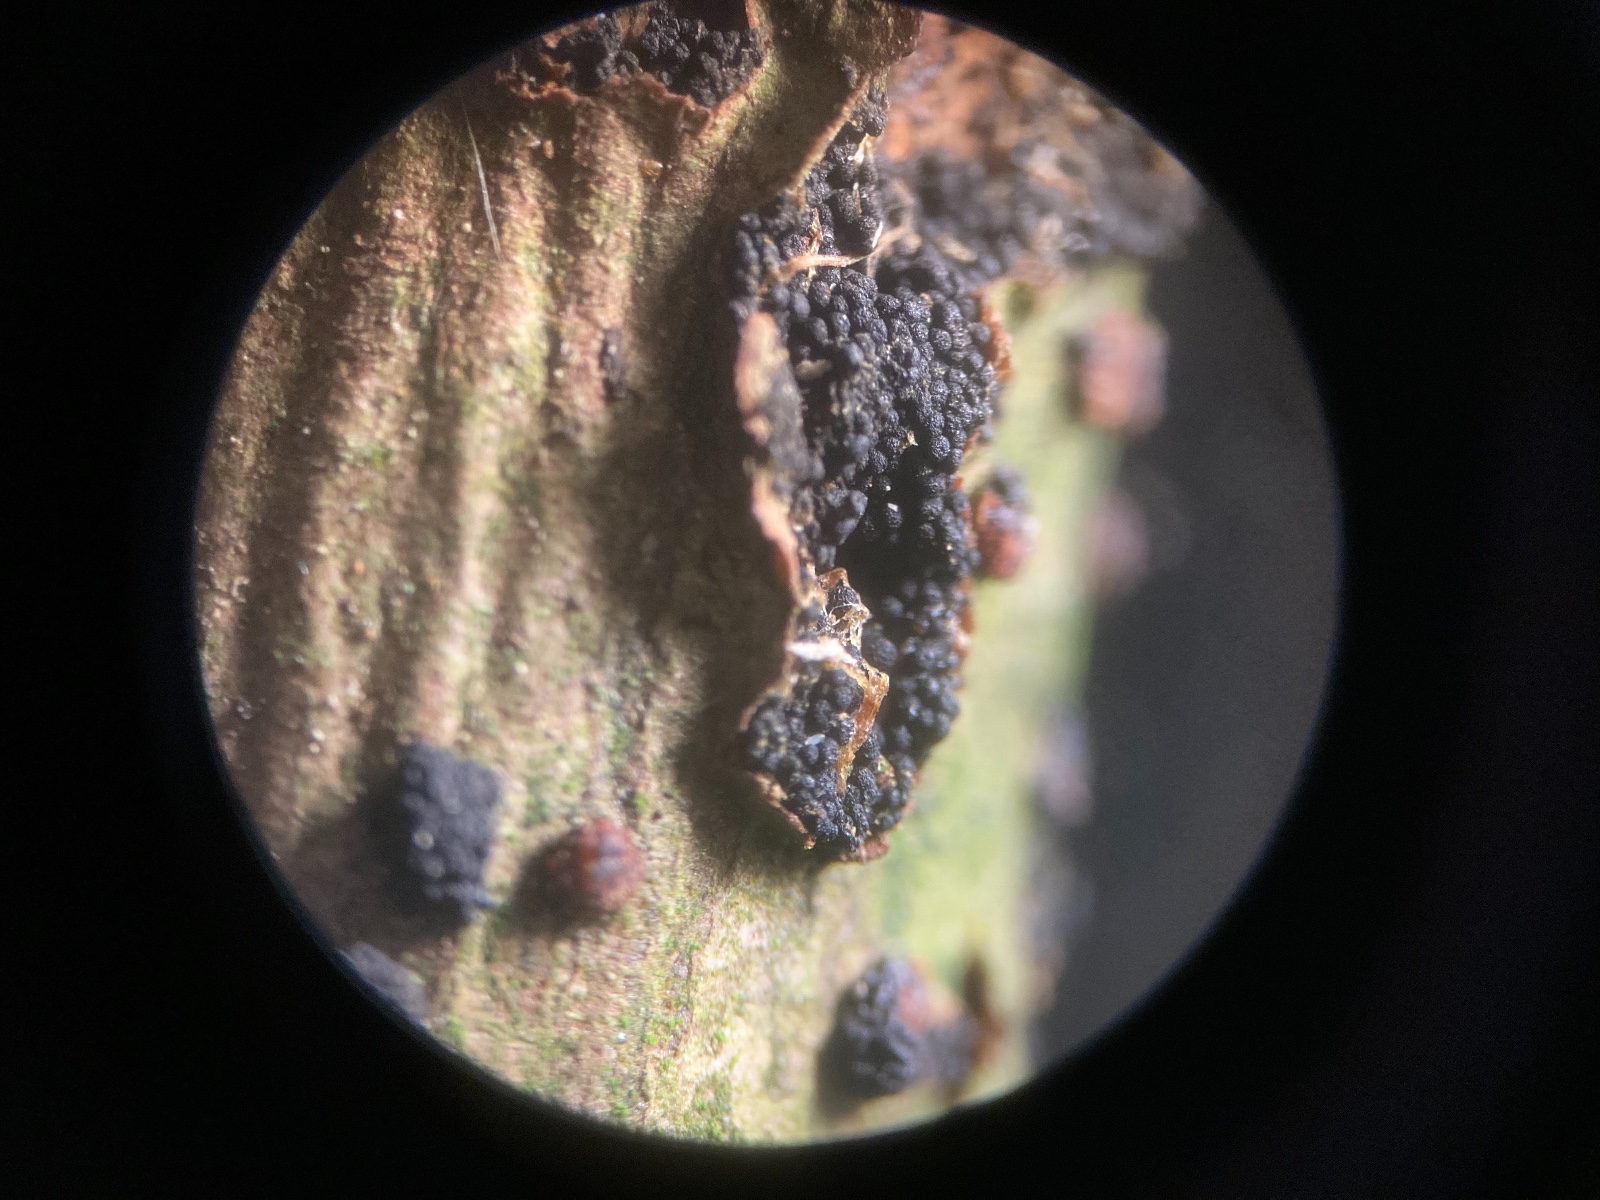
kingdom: Fungi
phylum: Ascomycota
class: Sordariomycetes
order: Coronophorales
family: Nitschkiaceae
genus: Nitschkia
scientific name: Nitschkia parasitans
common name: snyltende skålkerne
